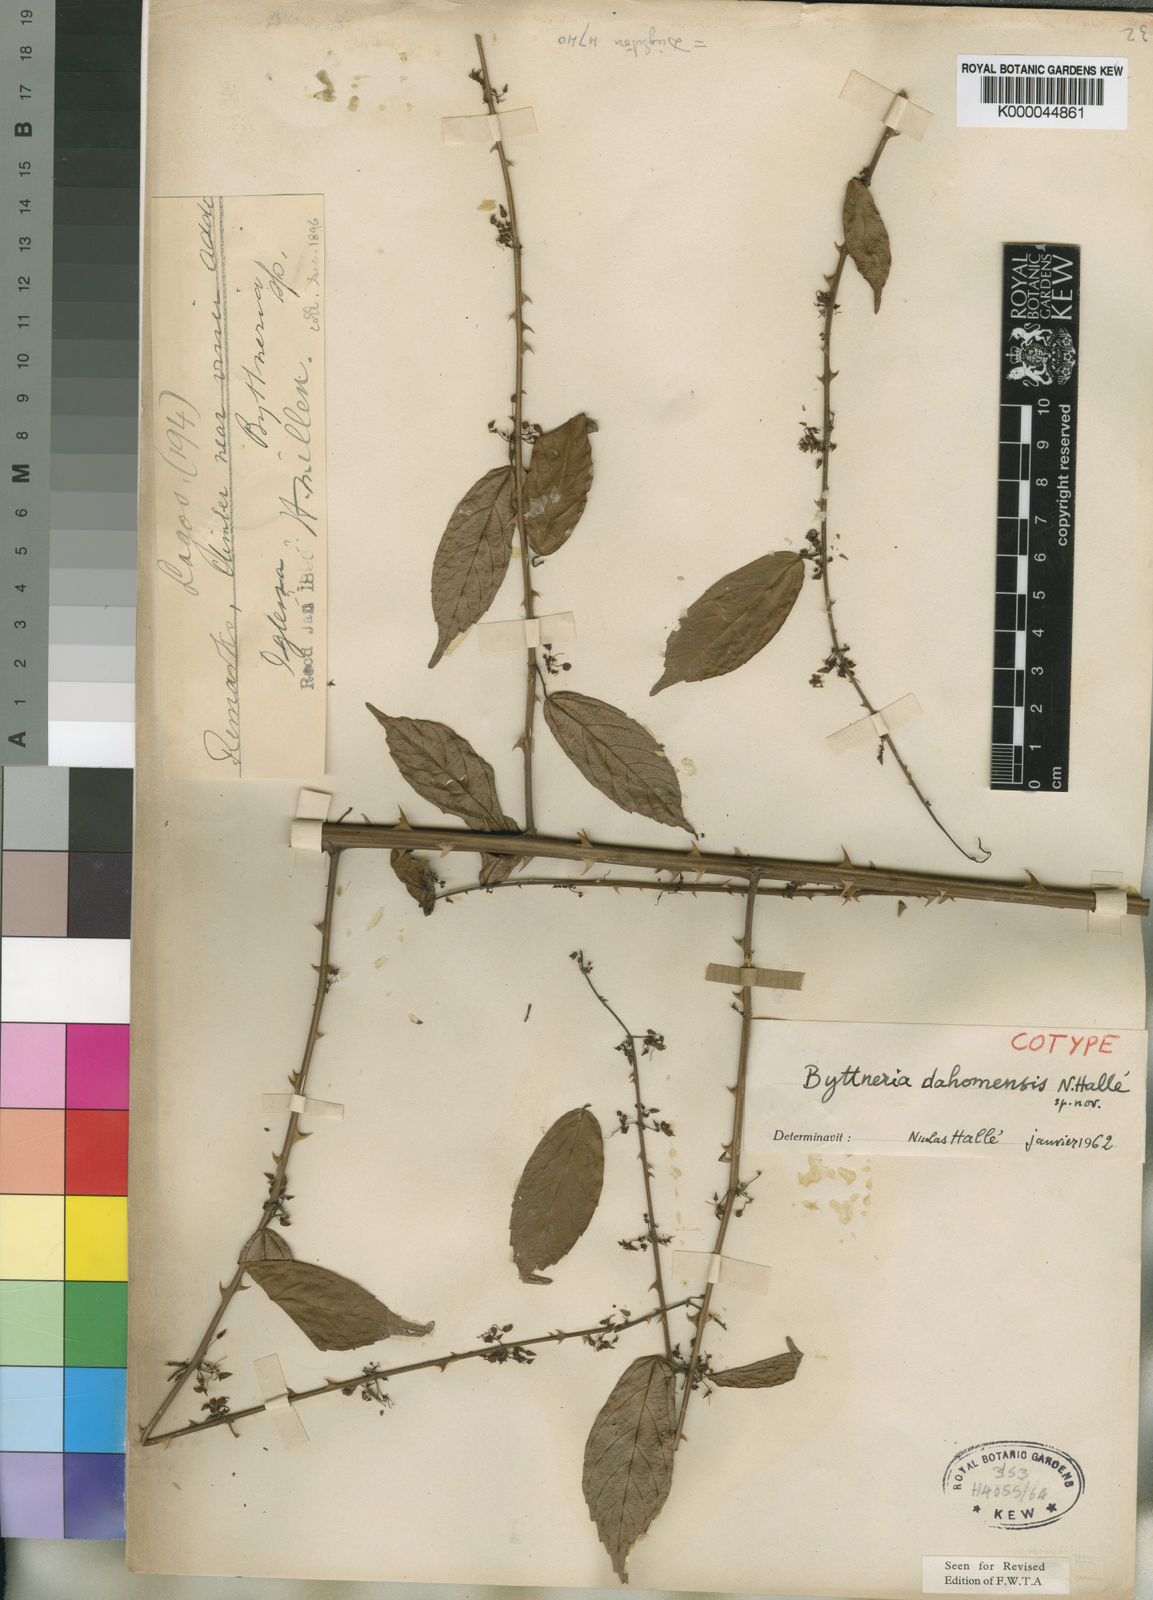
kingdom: Plantae
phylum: Tracheophyta
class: Magnoliopsida
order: Malvales
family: Malvaceae
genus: Byttneria
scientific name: Byttneria
